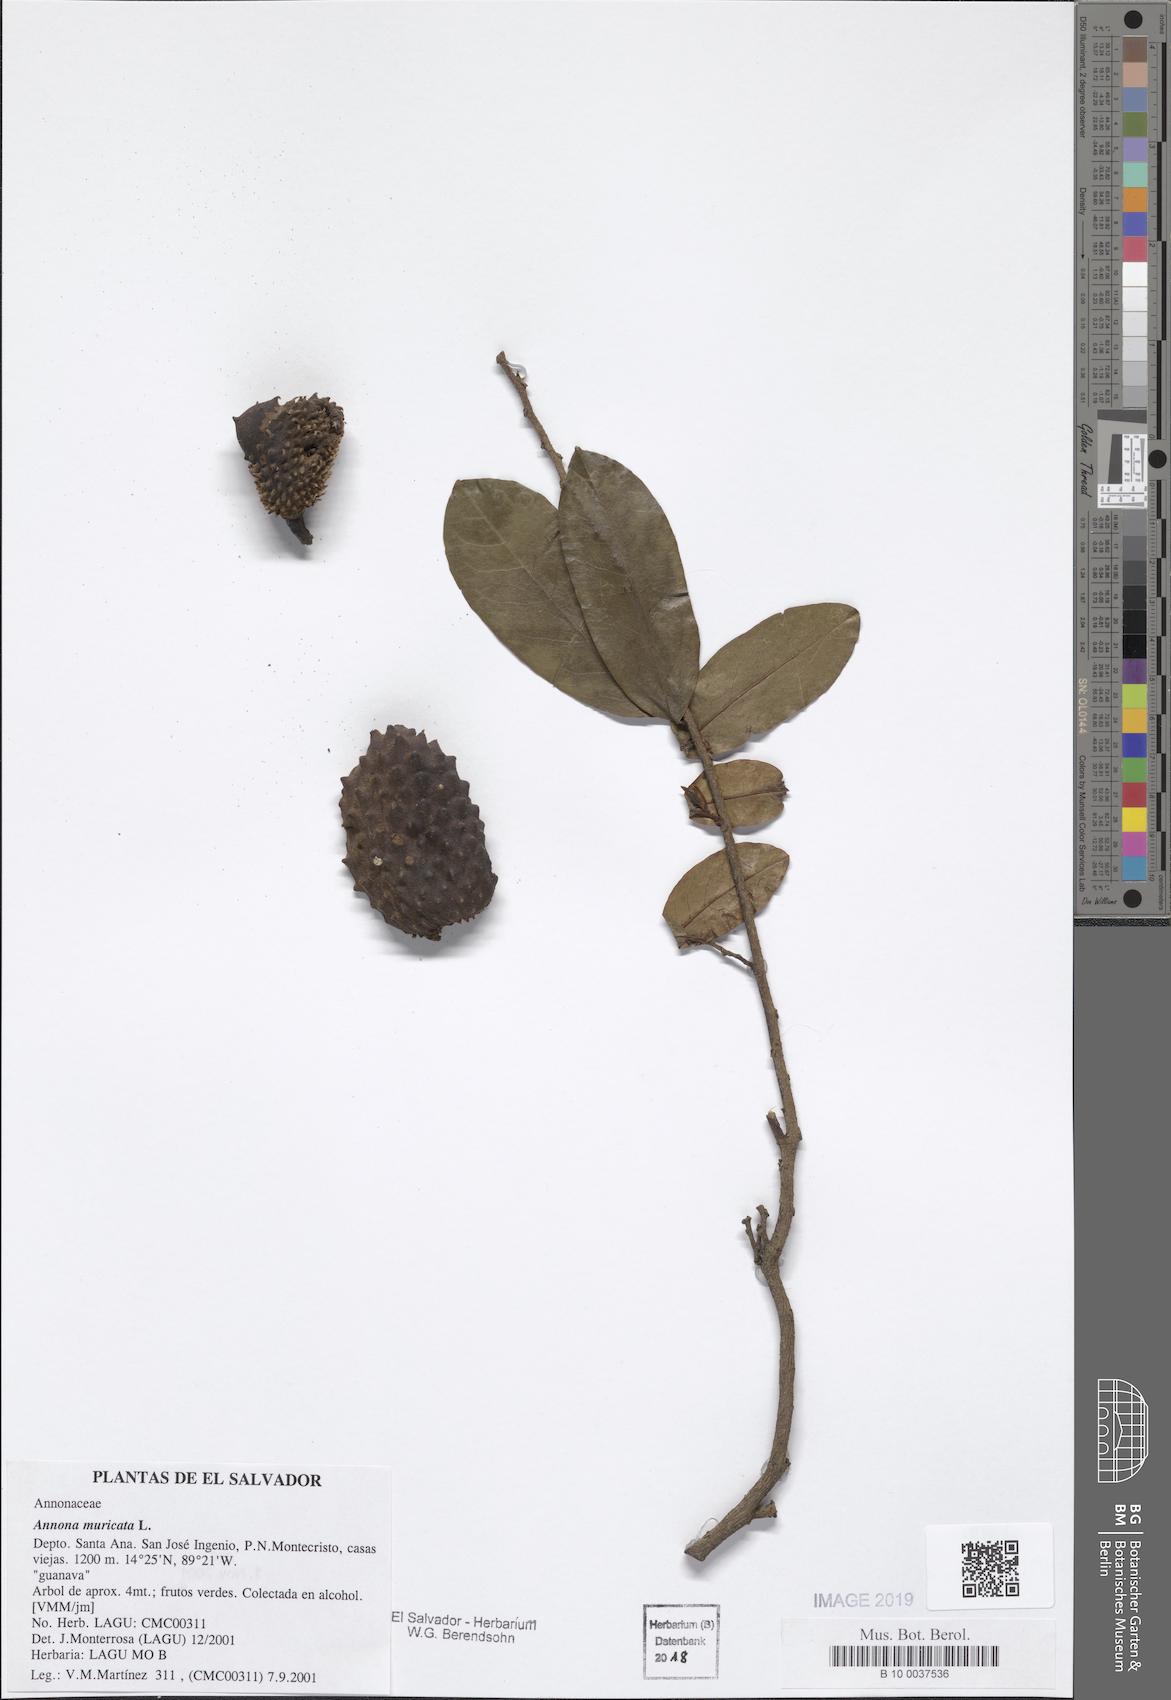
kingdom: Plantae
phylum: Tracheophyta
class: Magnoliopsida
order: Magnoliales
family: Annonaceae
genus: Annona
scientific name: Annona muricata
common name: Soursop
